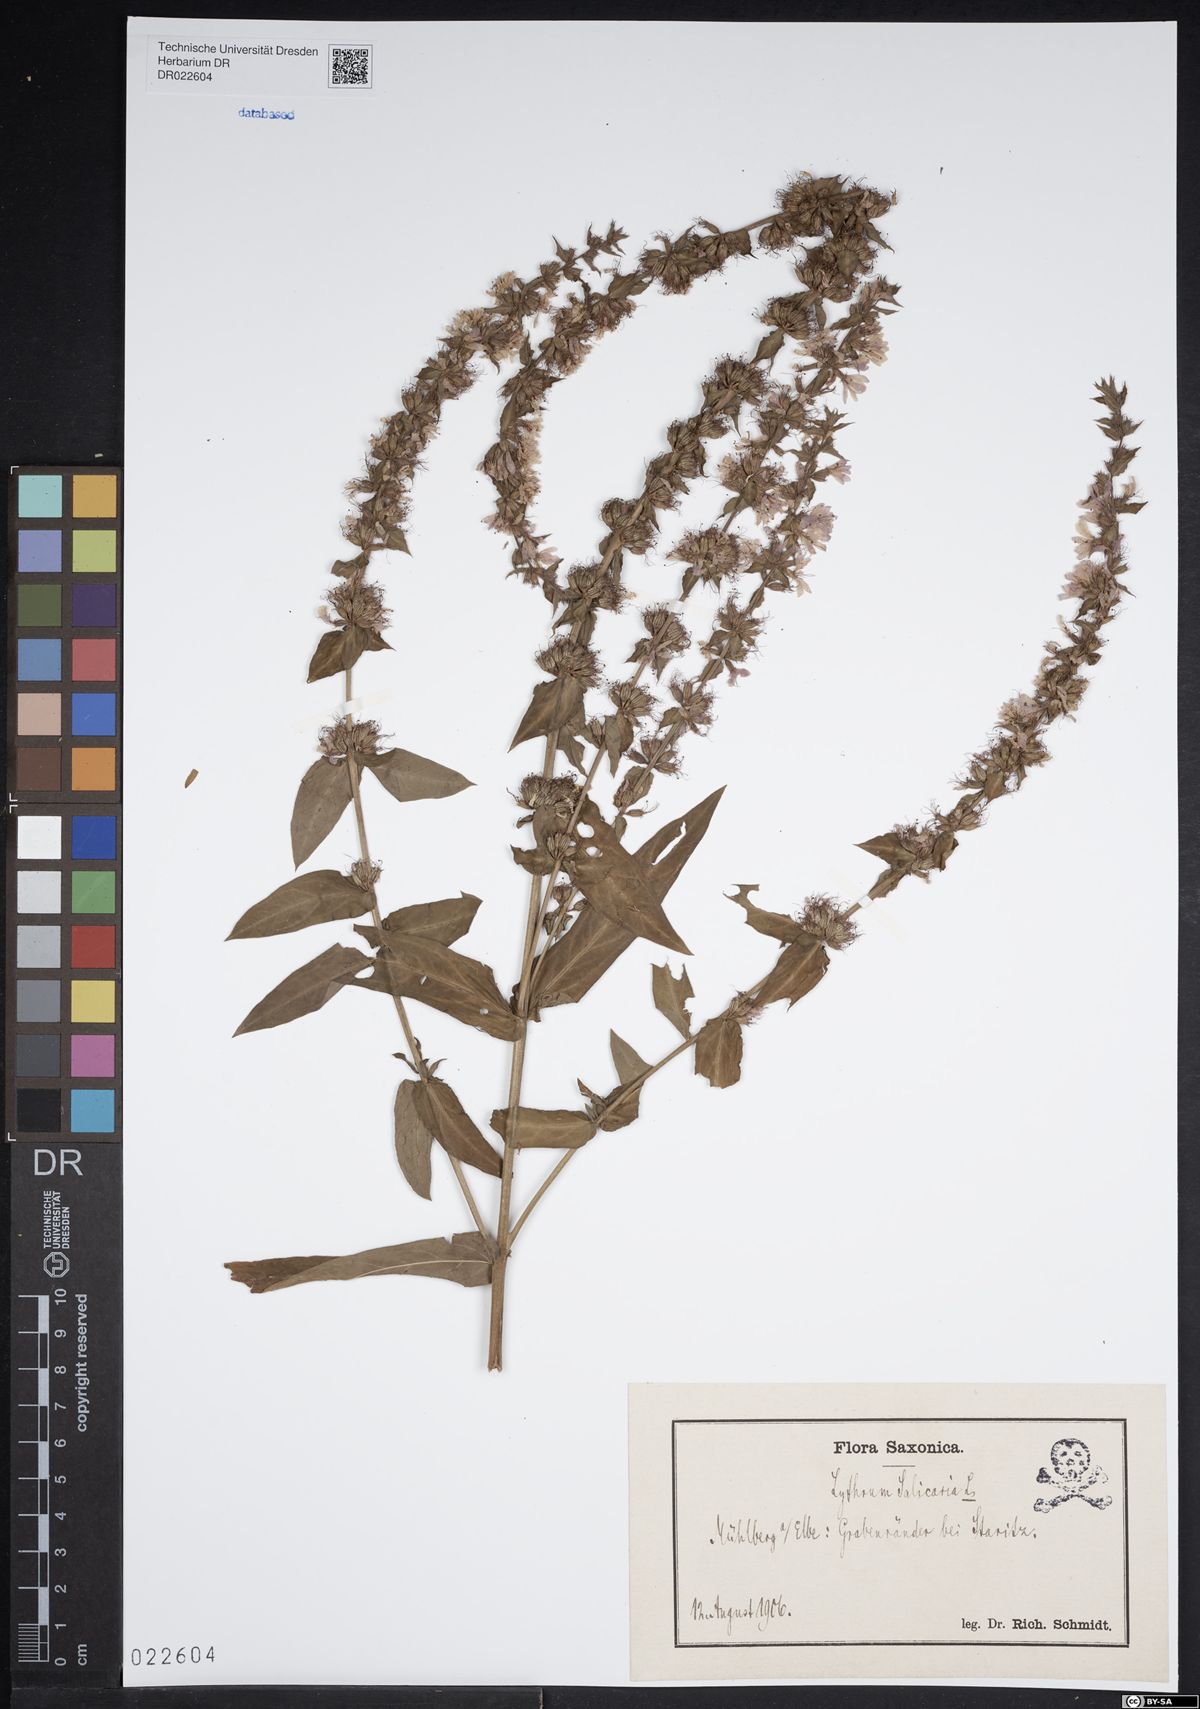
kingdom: Plantae
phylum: Tracheophyta
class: Magnoliopsida
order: Myrtales
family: Lythraceae
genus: Lythrum
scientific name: Lythrum salicaria
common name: Purple loosestrife
